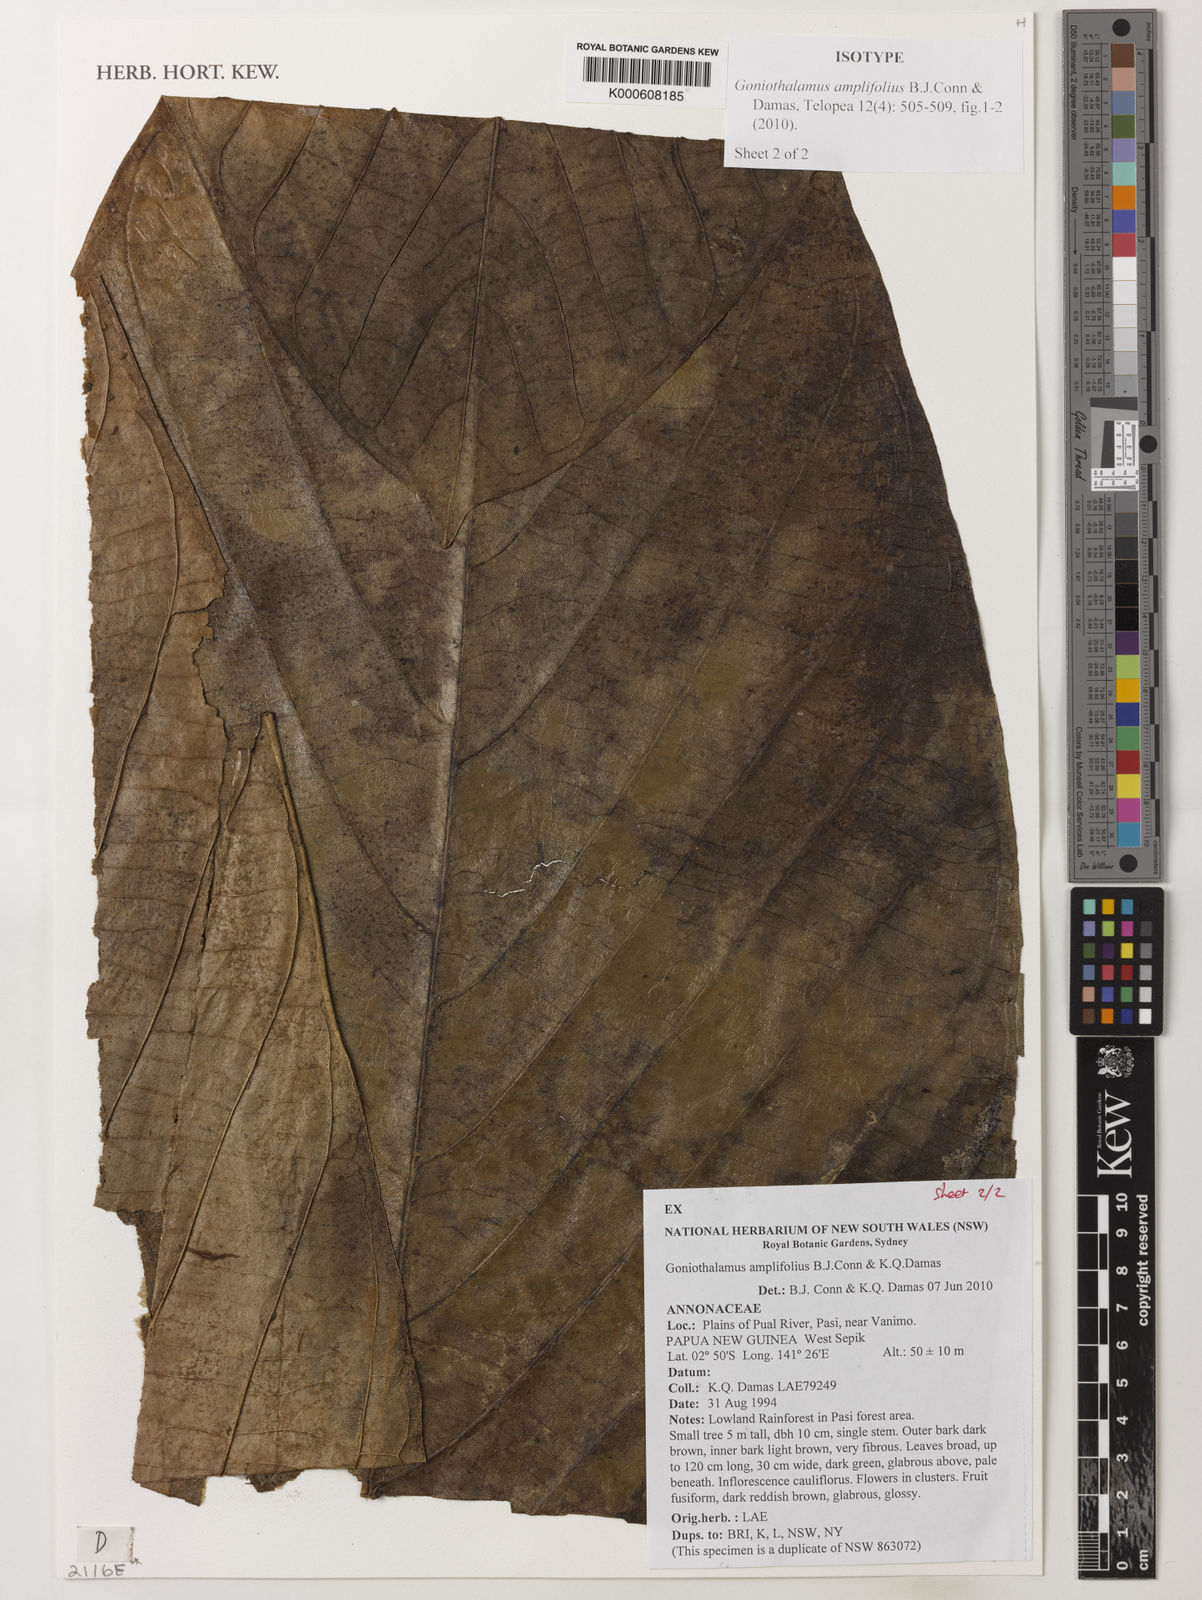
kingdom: Plantae
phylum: Tracheophyta
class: Magnoliopsida
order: Magnoliales
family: Annonaceae
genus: Goniothalamus
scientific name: Goniothalamus amplifolius
